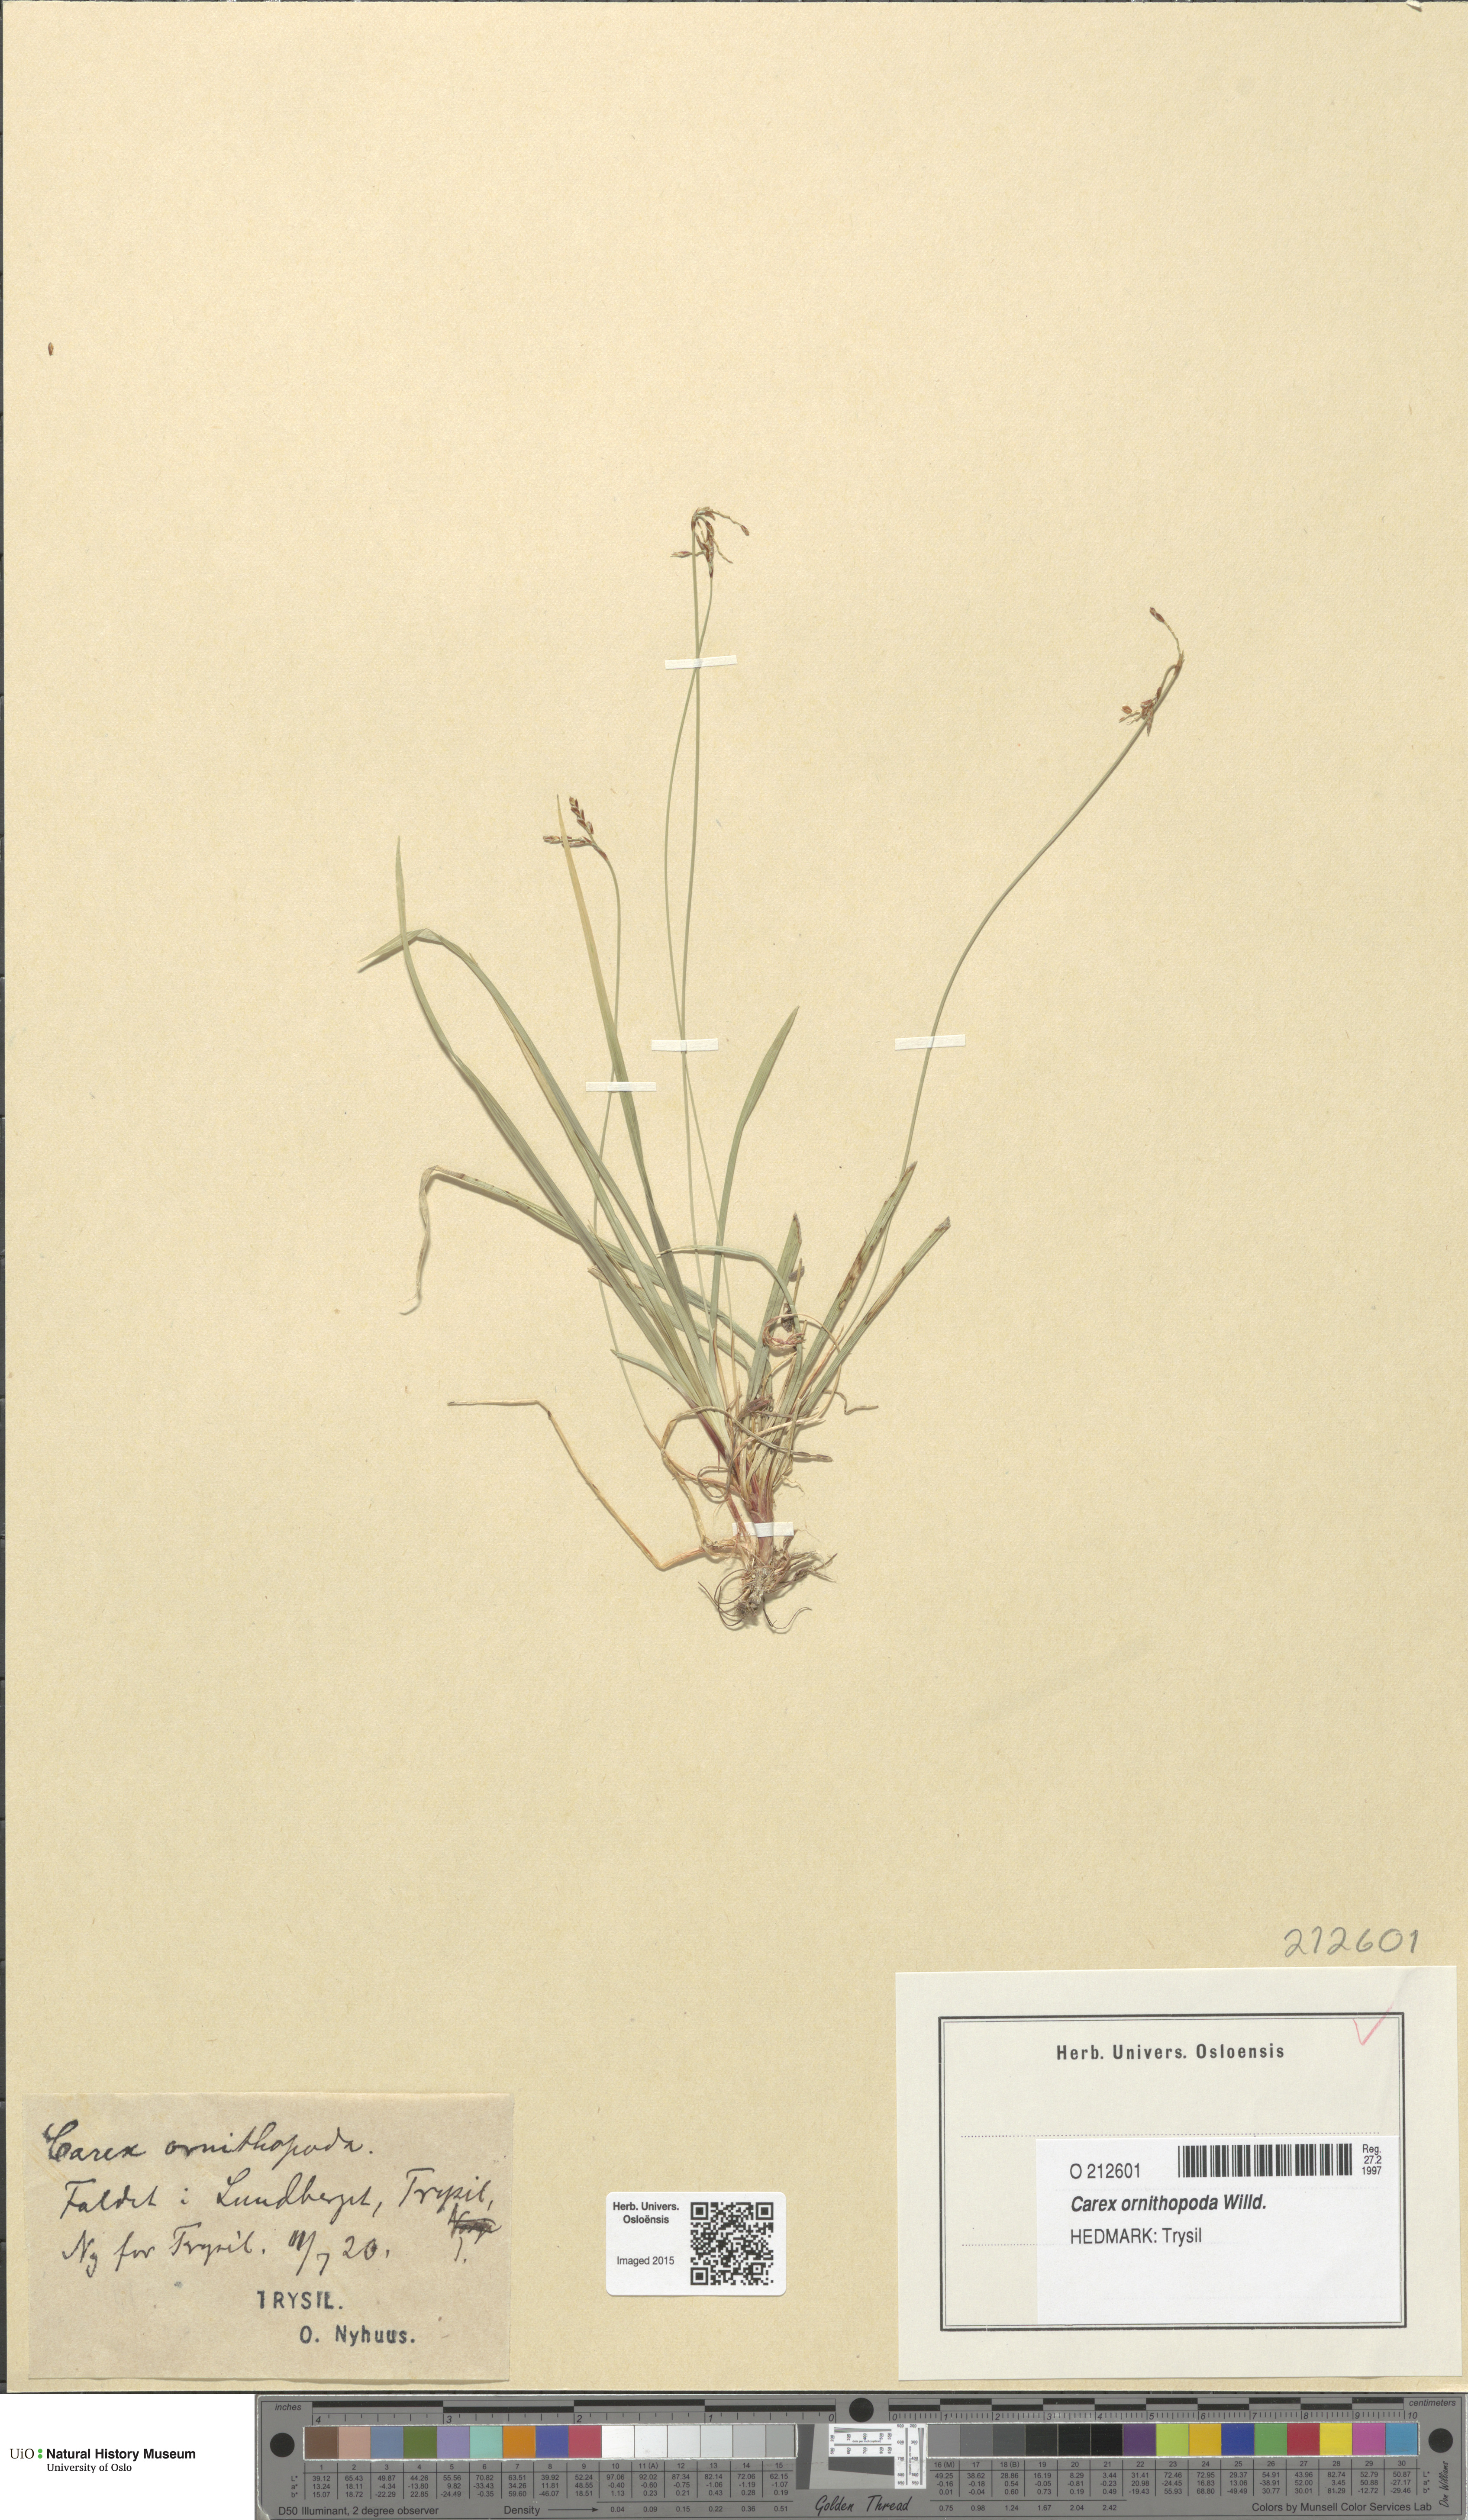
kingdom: Plantae
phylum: Tracheophyta
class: Liliopsida
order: Poales
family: Cyperaceae
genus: Carex
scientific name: Carex ornithopoda
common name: Bird's-foot sedge
